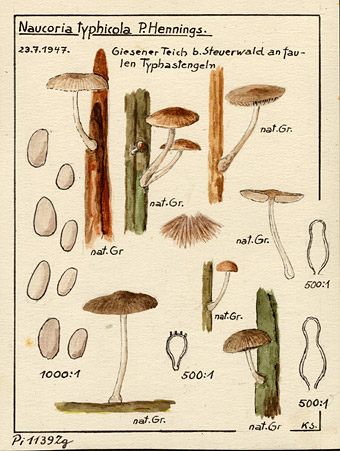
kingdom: Fungi
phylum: Basidiomycota
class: Agaricomycetes
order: Agaricales
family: Psathyrellaceae
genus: Candolleomyces
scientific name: Candolleomyces typhae
